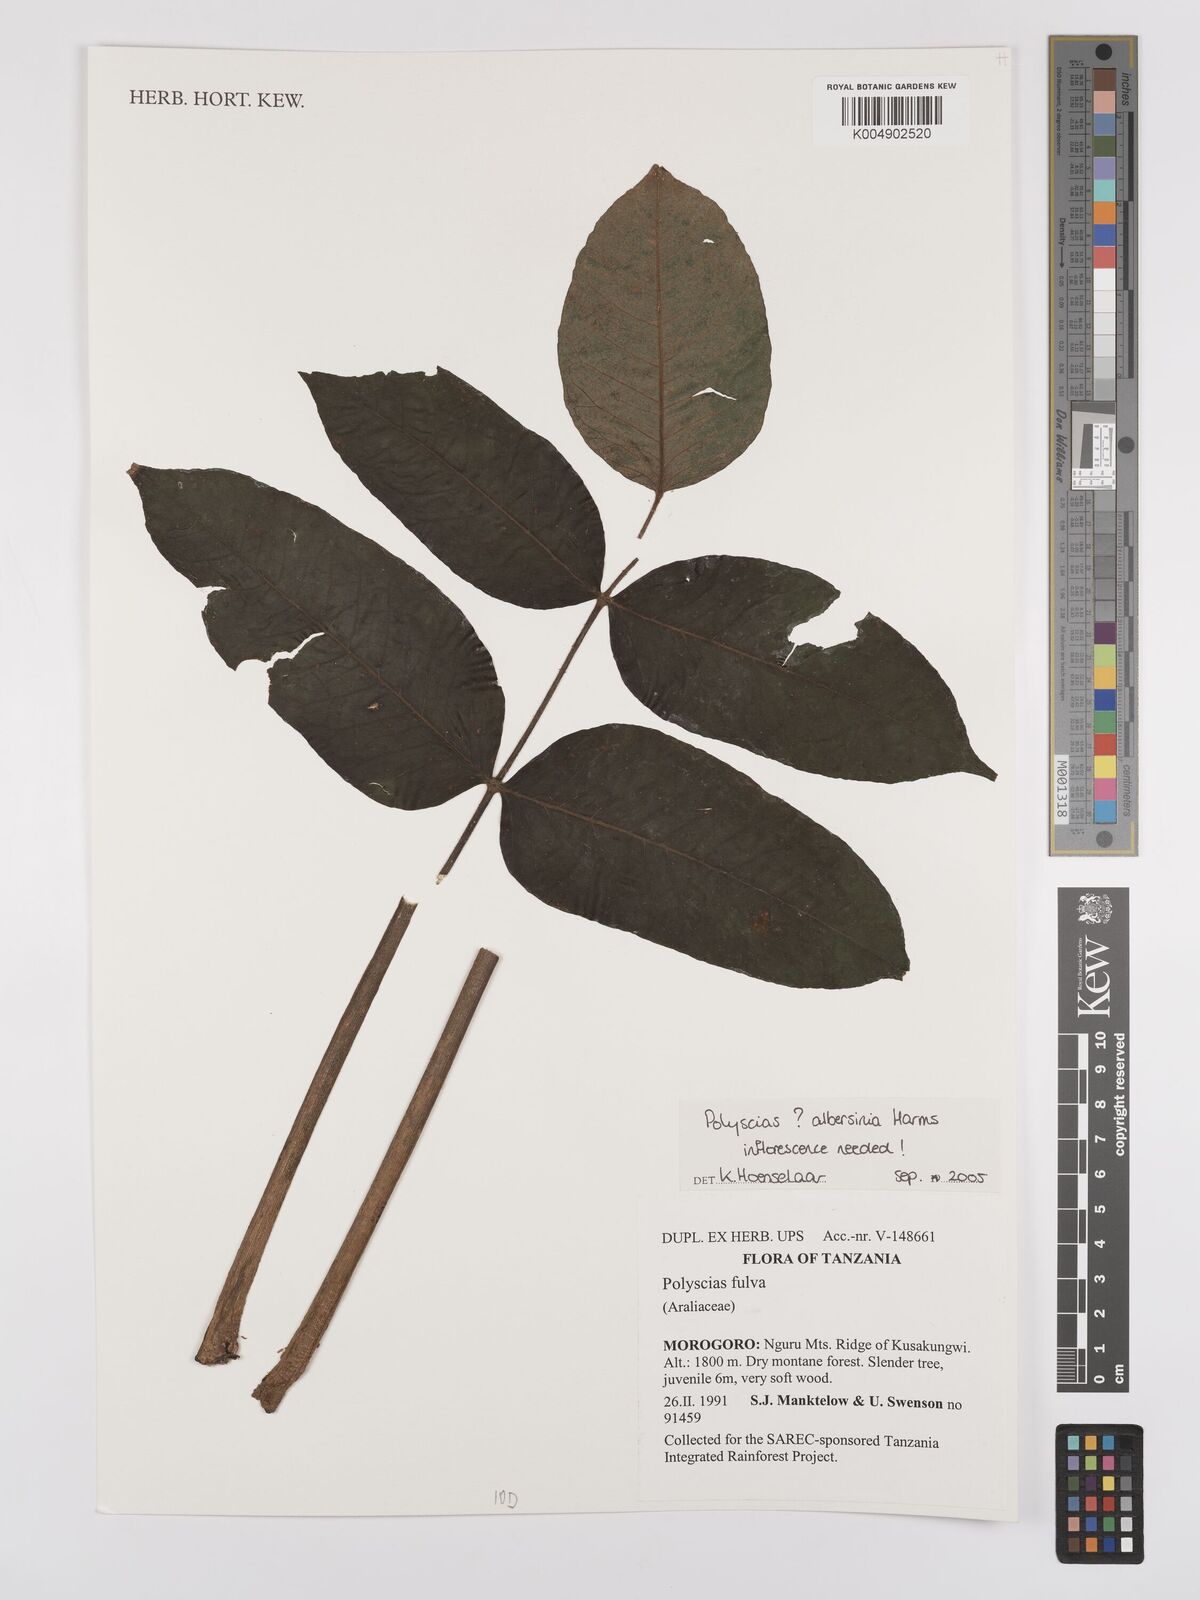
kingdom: Plantae
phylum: Tracheophyta
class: Magnoliopsida
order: Apiales
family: Araliaceae
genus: Polyscias
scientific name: Polyscias fulva
